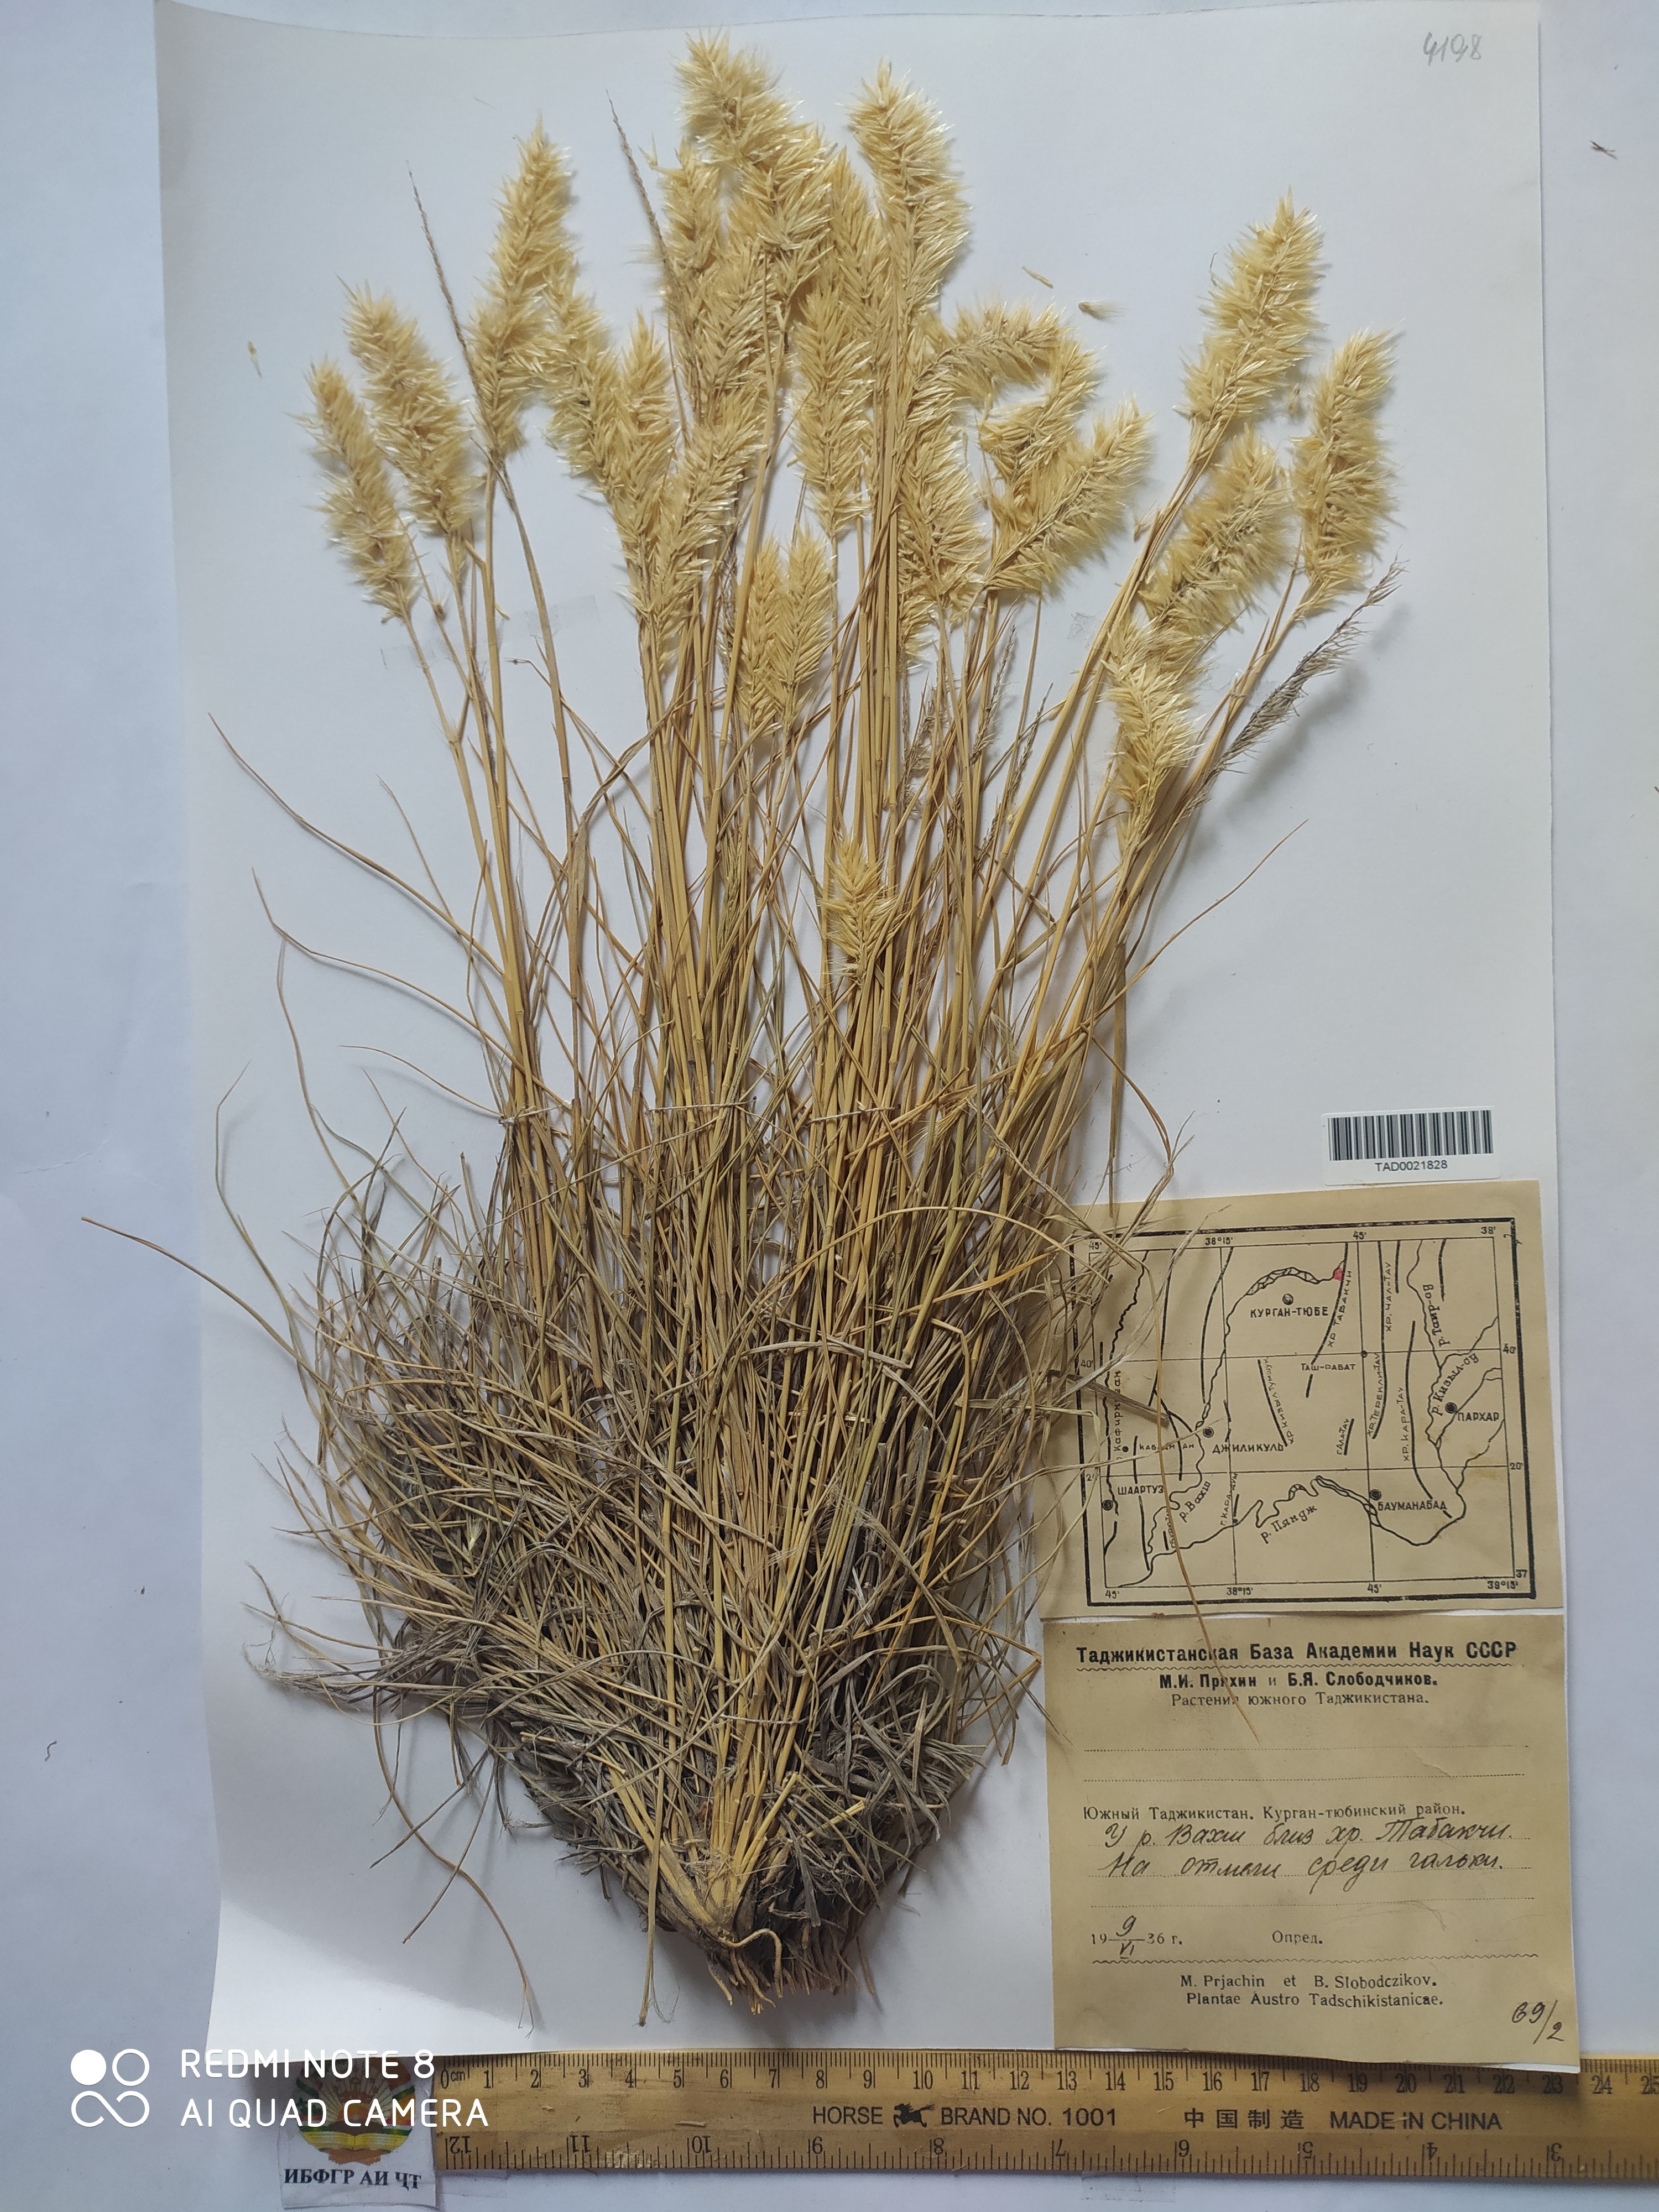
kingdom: Plantae
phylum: Tracheophyta
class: Liliopsida
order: Poales
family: Poaceae
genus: Enneapogon
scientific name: Enneapogon persicus
